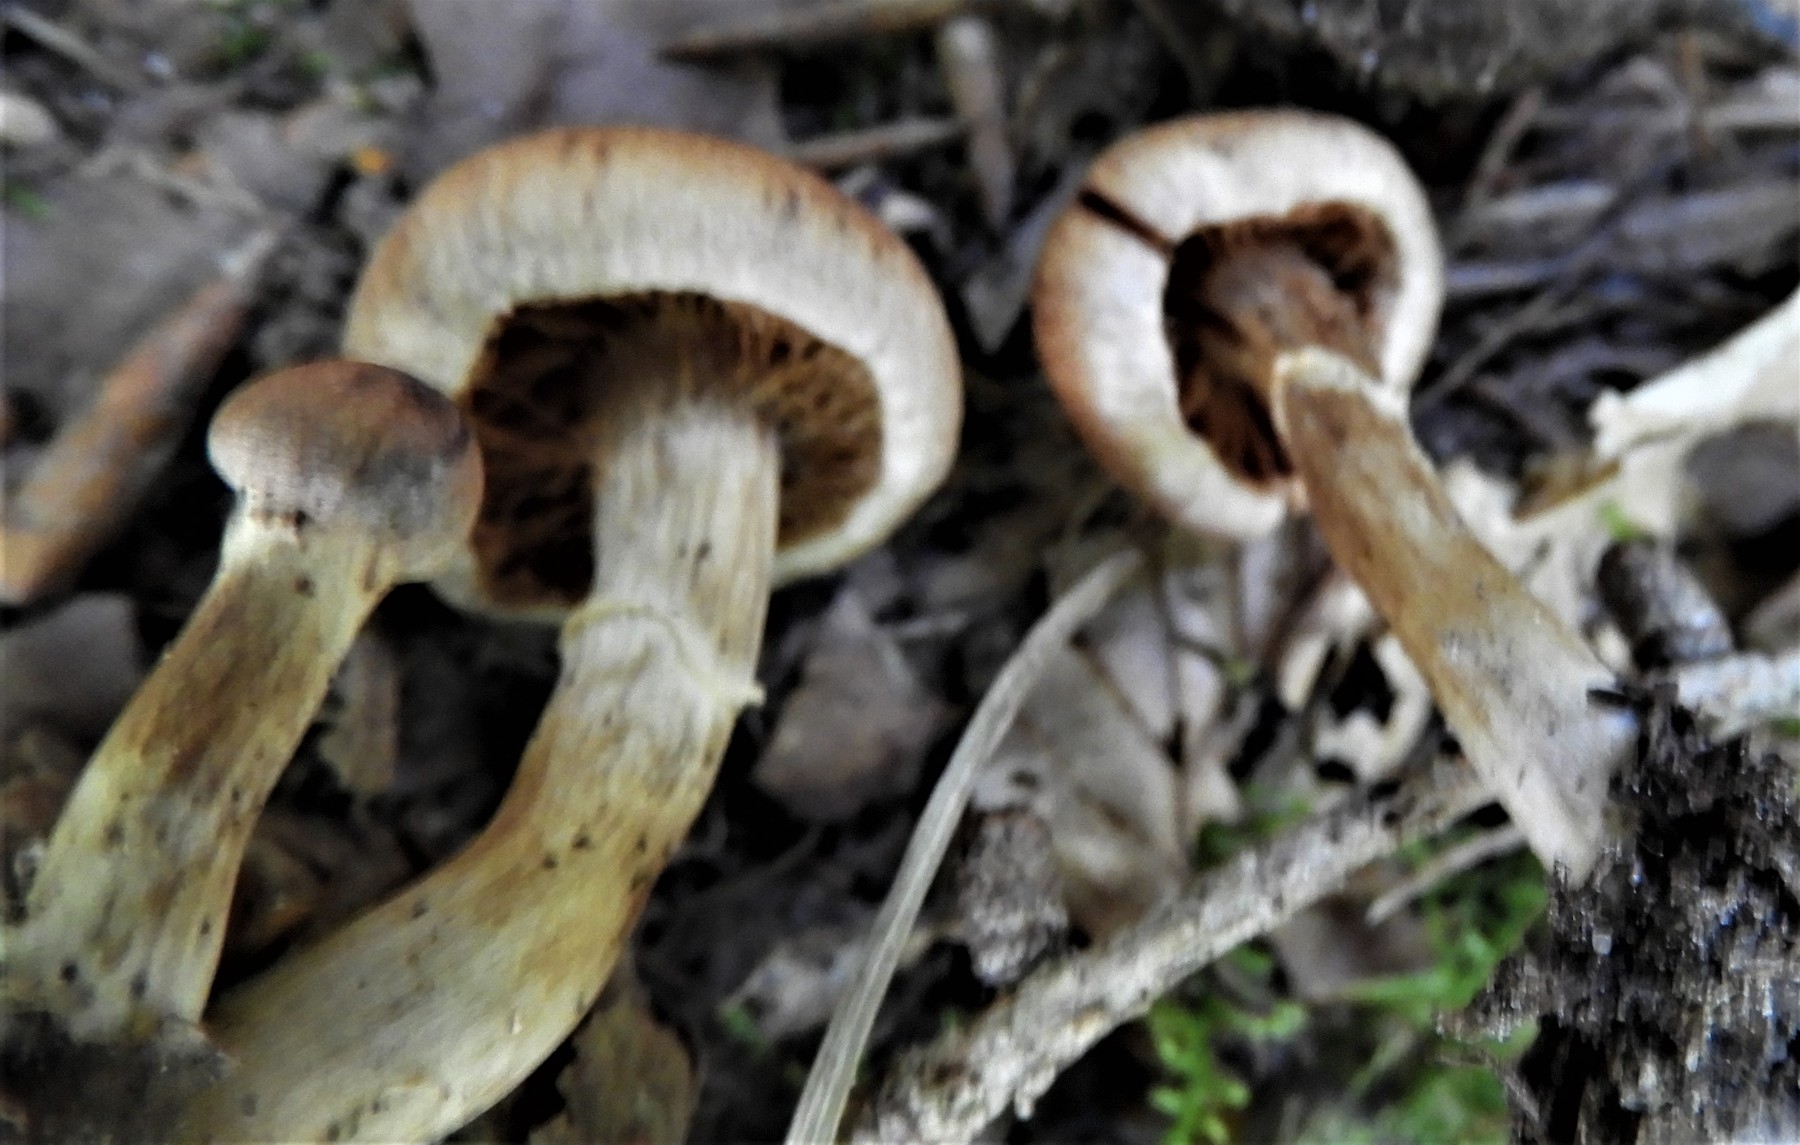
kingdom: Fungi
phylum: Basidiomycota
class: Agaricomycetes
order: Agaricales
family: Cortinariaceae
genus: Cortinarius
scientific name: Cortinarius hinnuleus
